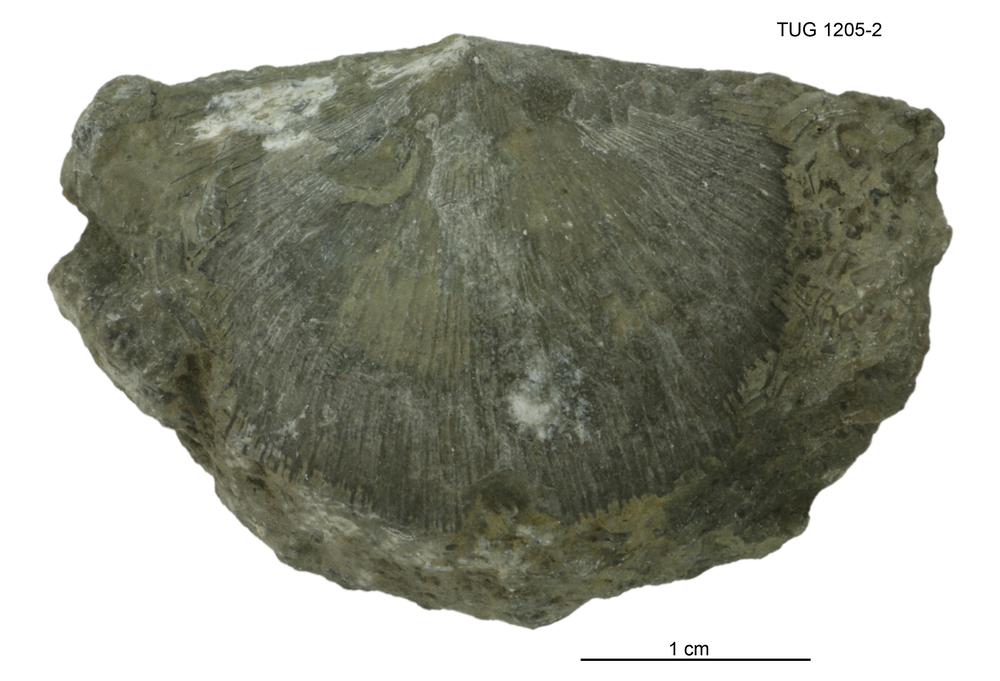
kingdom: Animalia
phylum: Brachiopoda
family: Stropheodontidae
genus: Strophonella
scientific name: Strophonella
